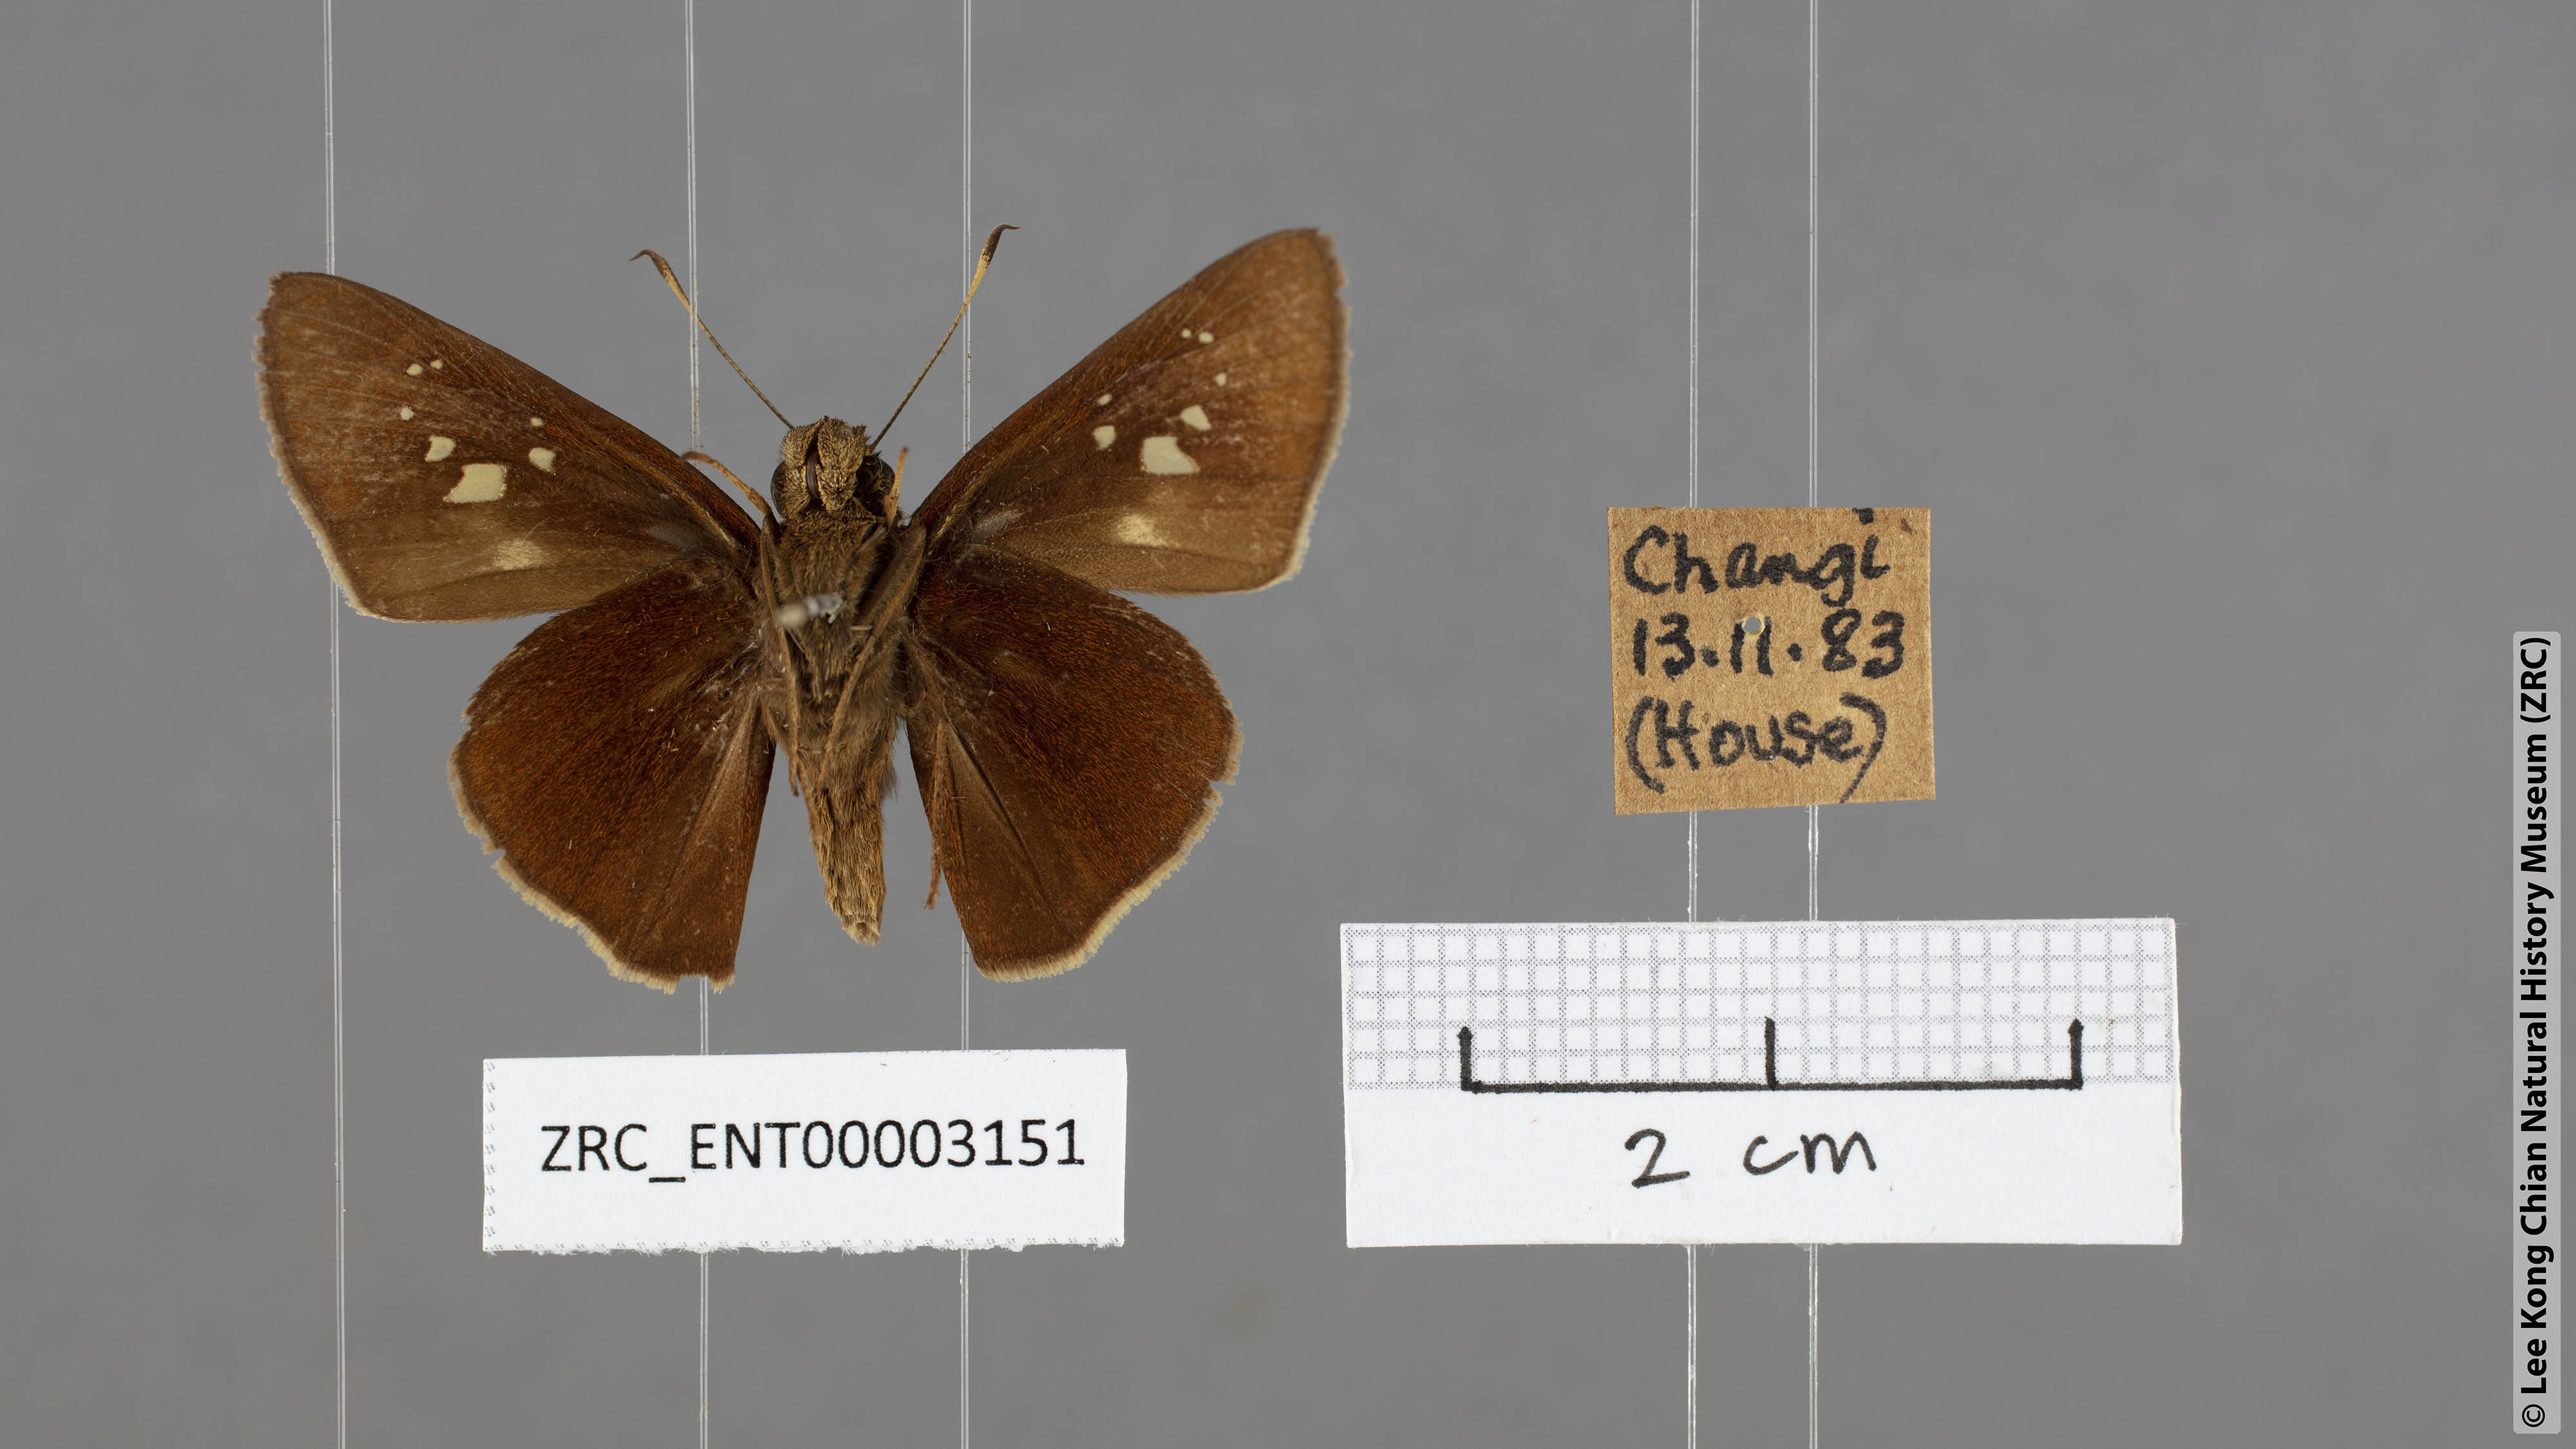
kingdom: Animalia
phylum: Arthropoda
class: Insecta
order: Lepidoptera
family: Hesperiidae
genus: Caltoris
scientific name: Caltoris cormasa
